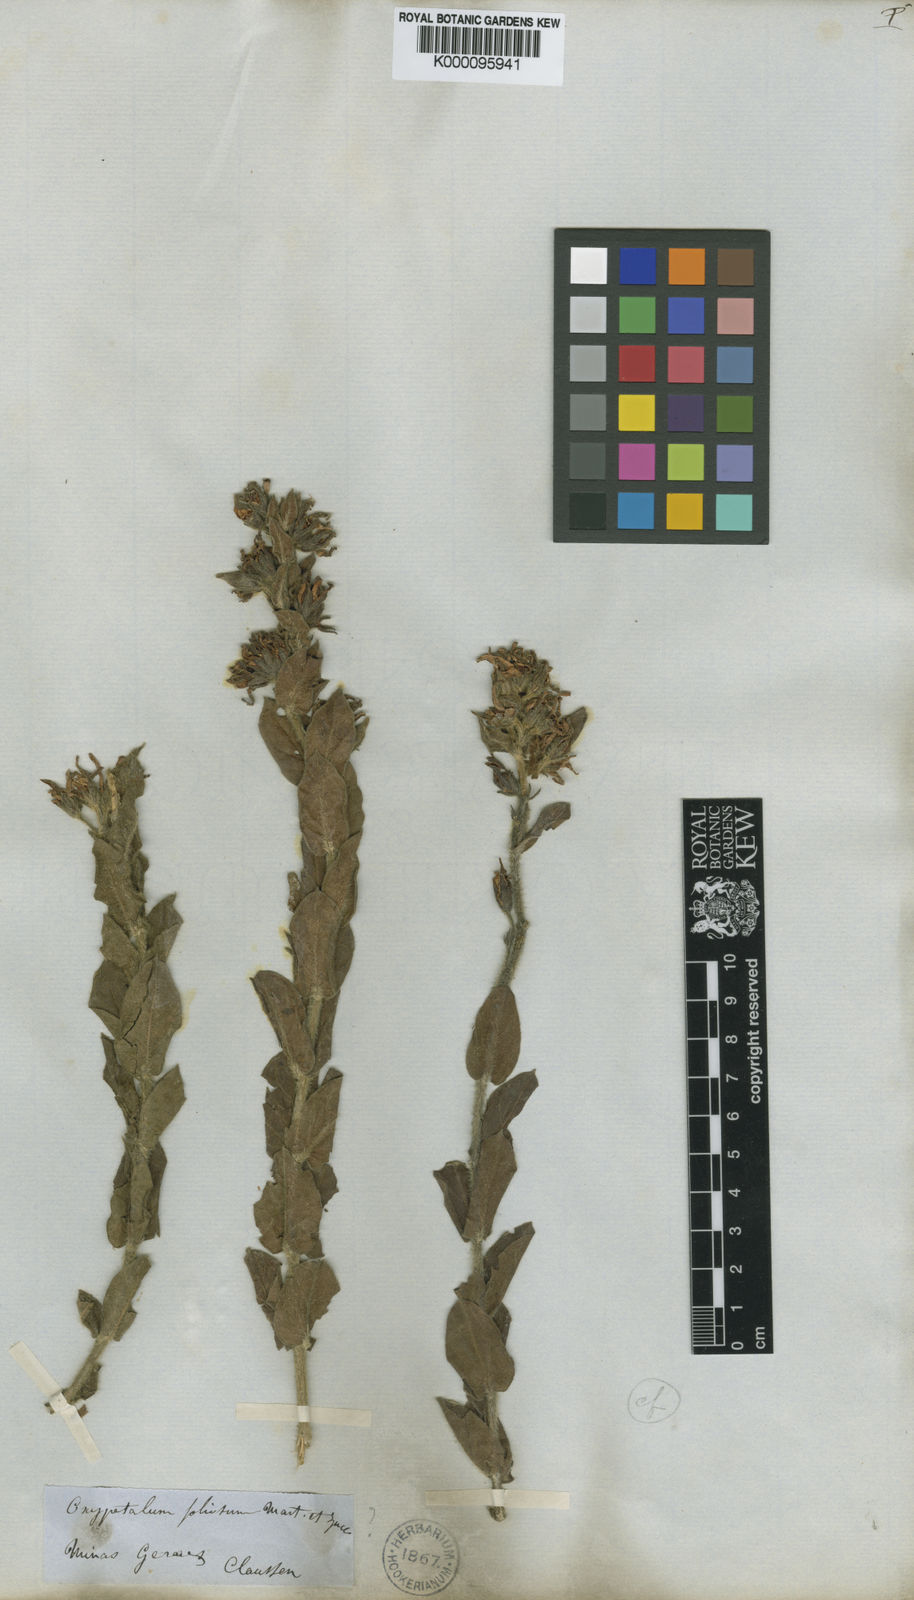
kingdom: Plantae
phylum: Tracheophyta
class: Magnoliopsida
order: Gentianales
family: Apocynaceae
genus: Oxypetalum
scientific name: Oxypetalum erectum
